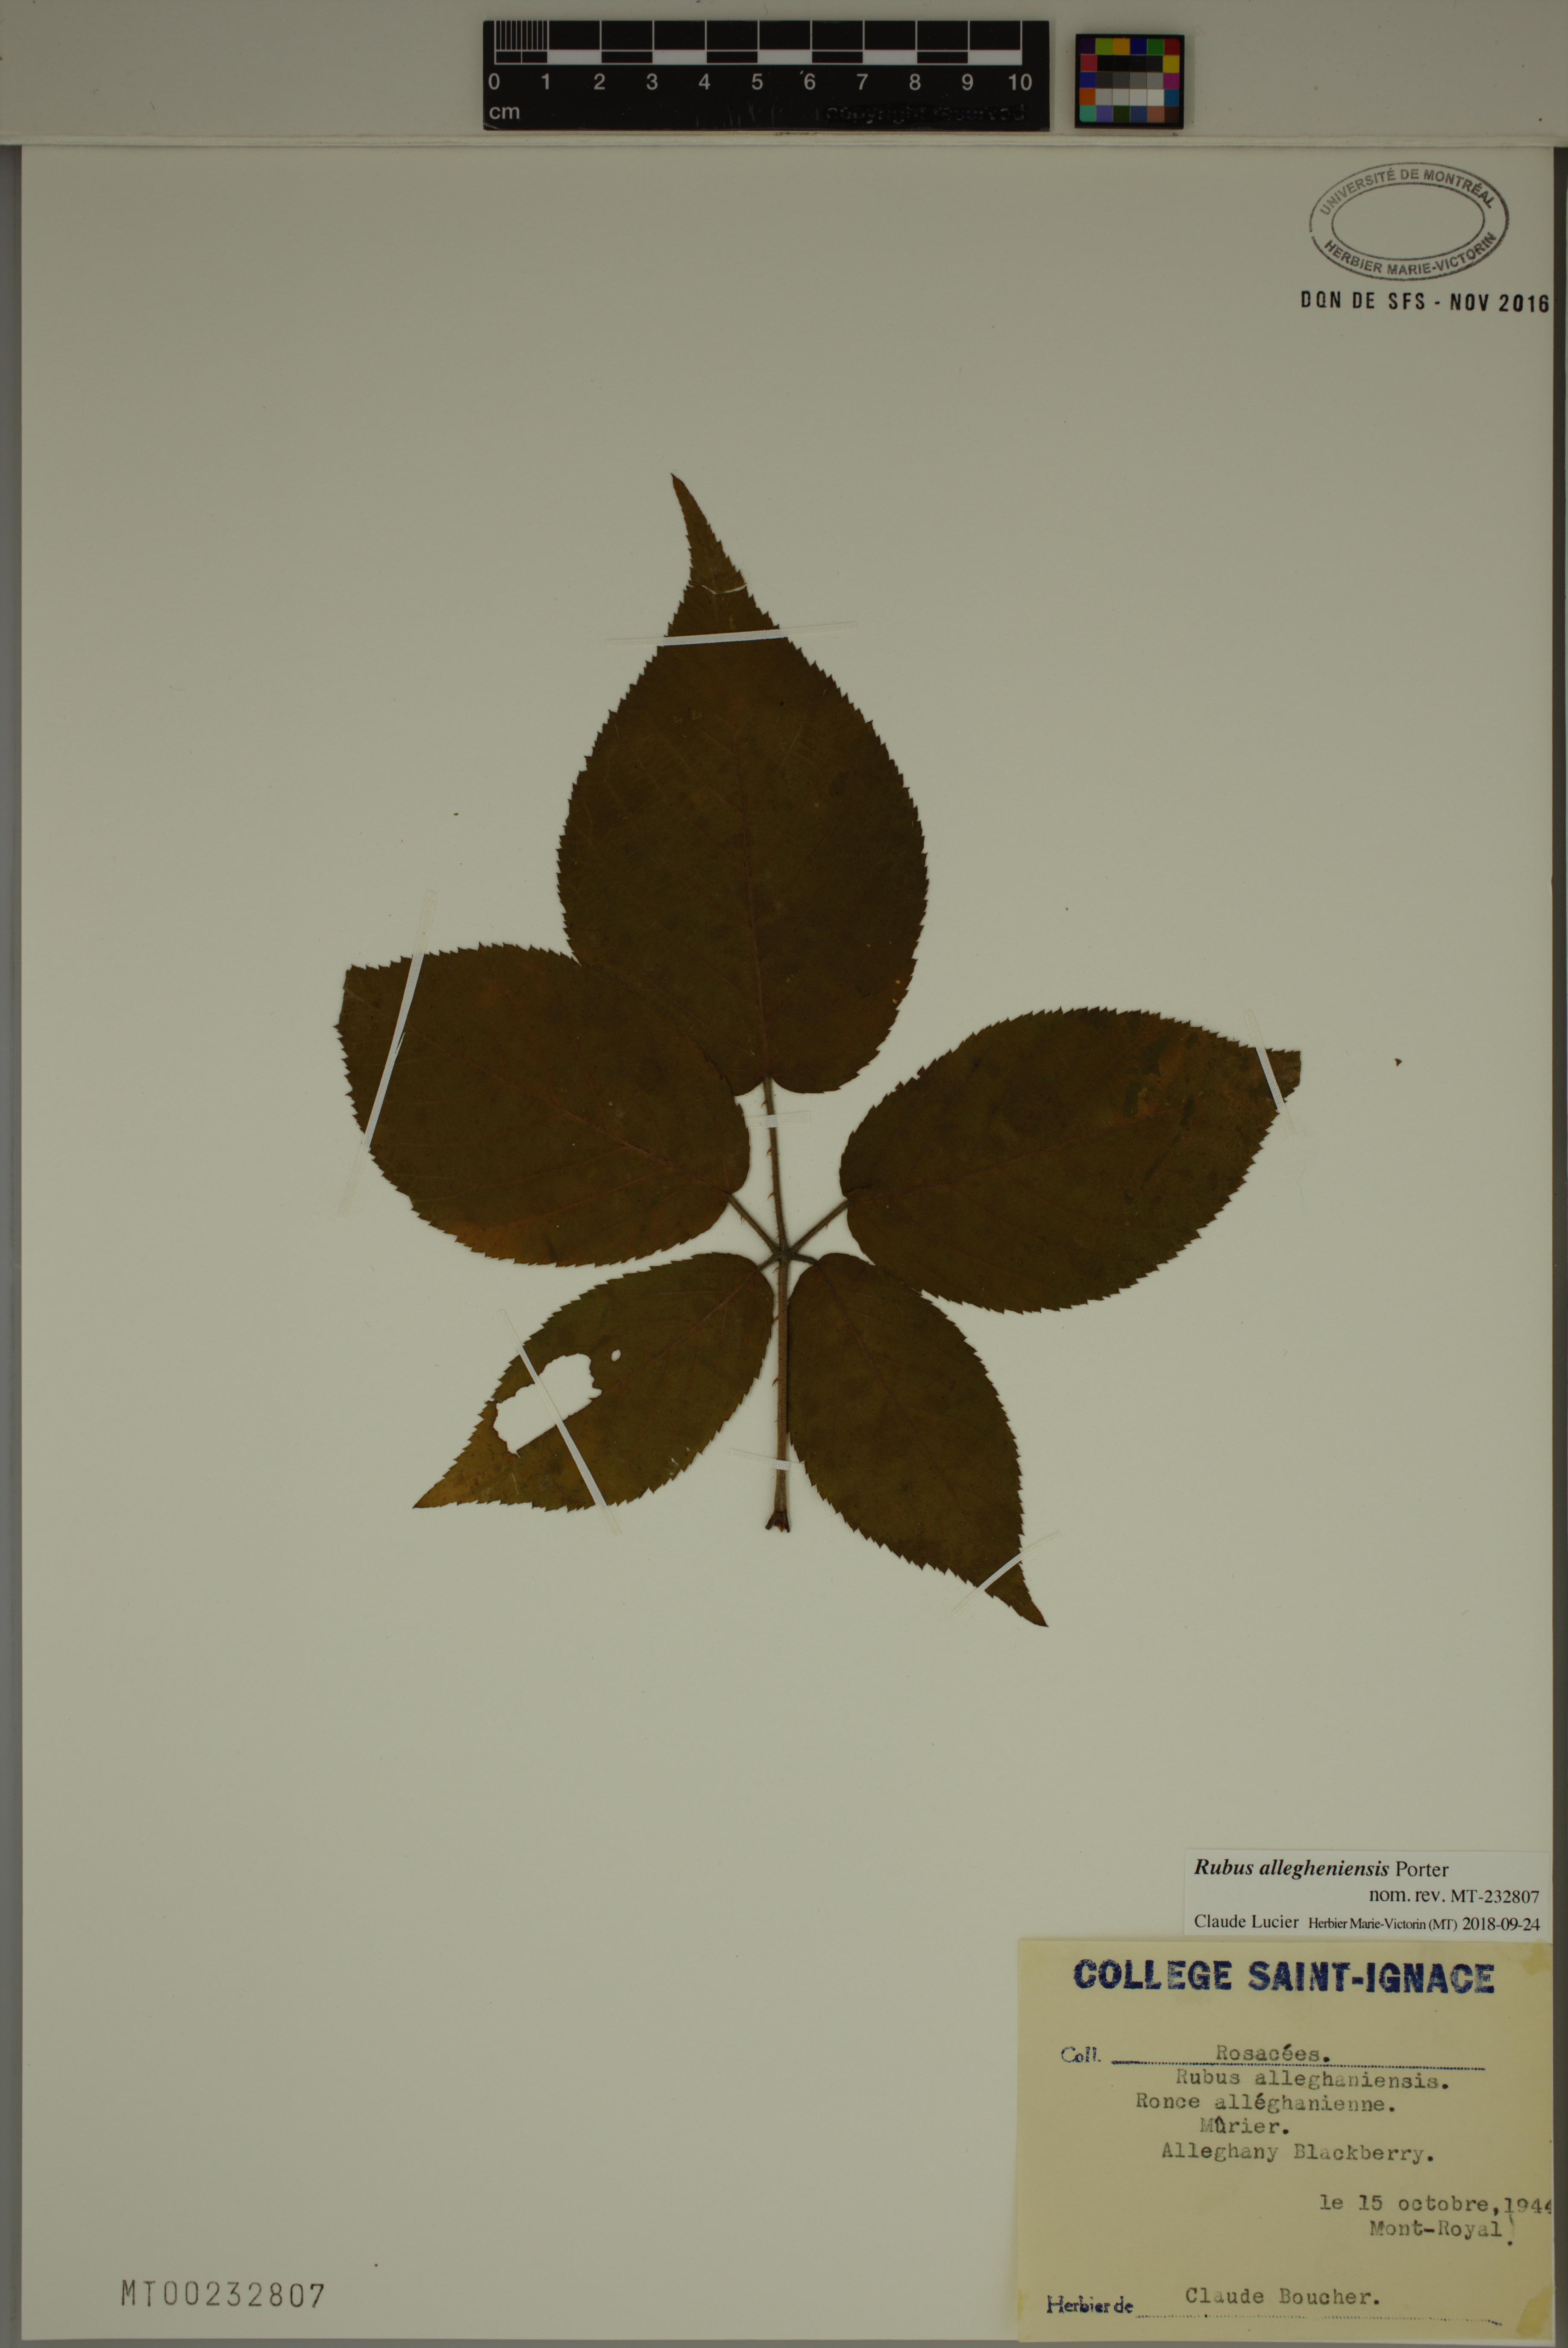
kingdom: Plantae
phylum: Tracheophyta
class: Magnoliopsida
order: Rosales
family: Rosaceae
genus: Rubus
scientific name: Rubus allegheniensis
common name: Allegheny blackberry
